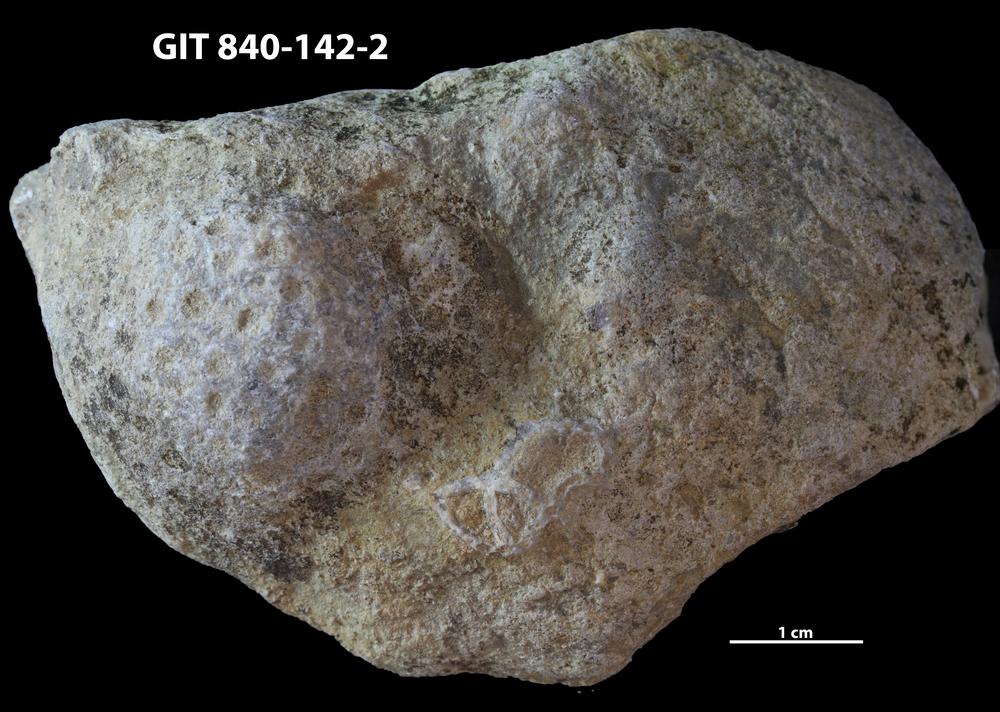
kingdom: Animalia
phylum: Cnidaria
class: Anthozoa
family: Cateniporidae
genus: Catenipora
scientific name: Catenipora
